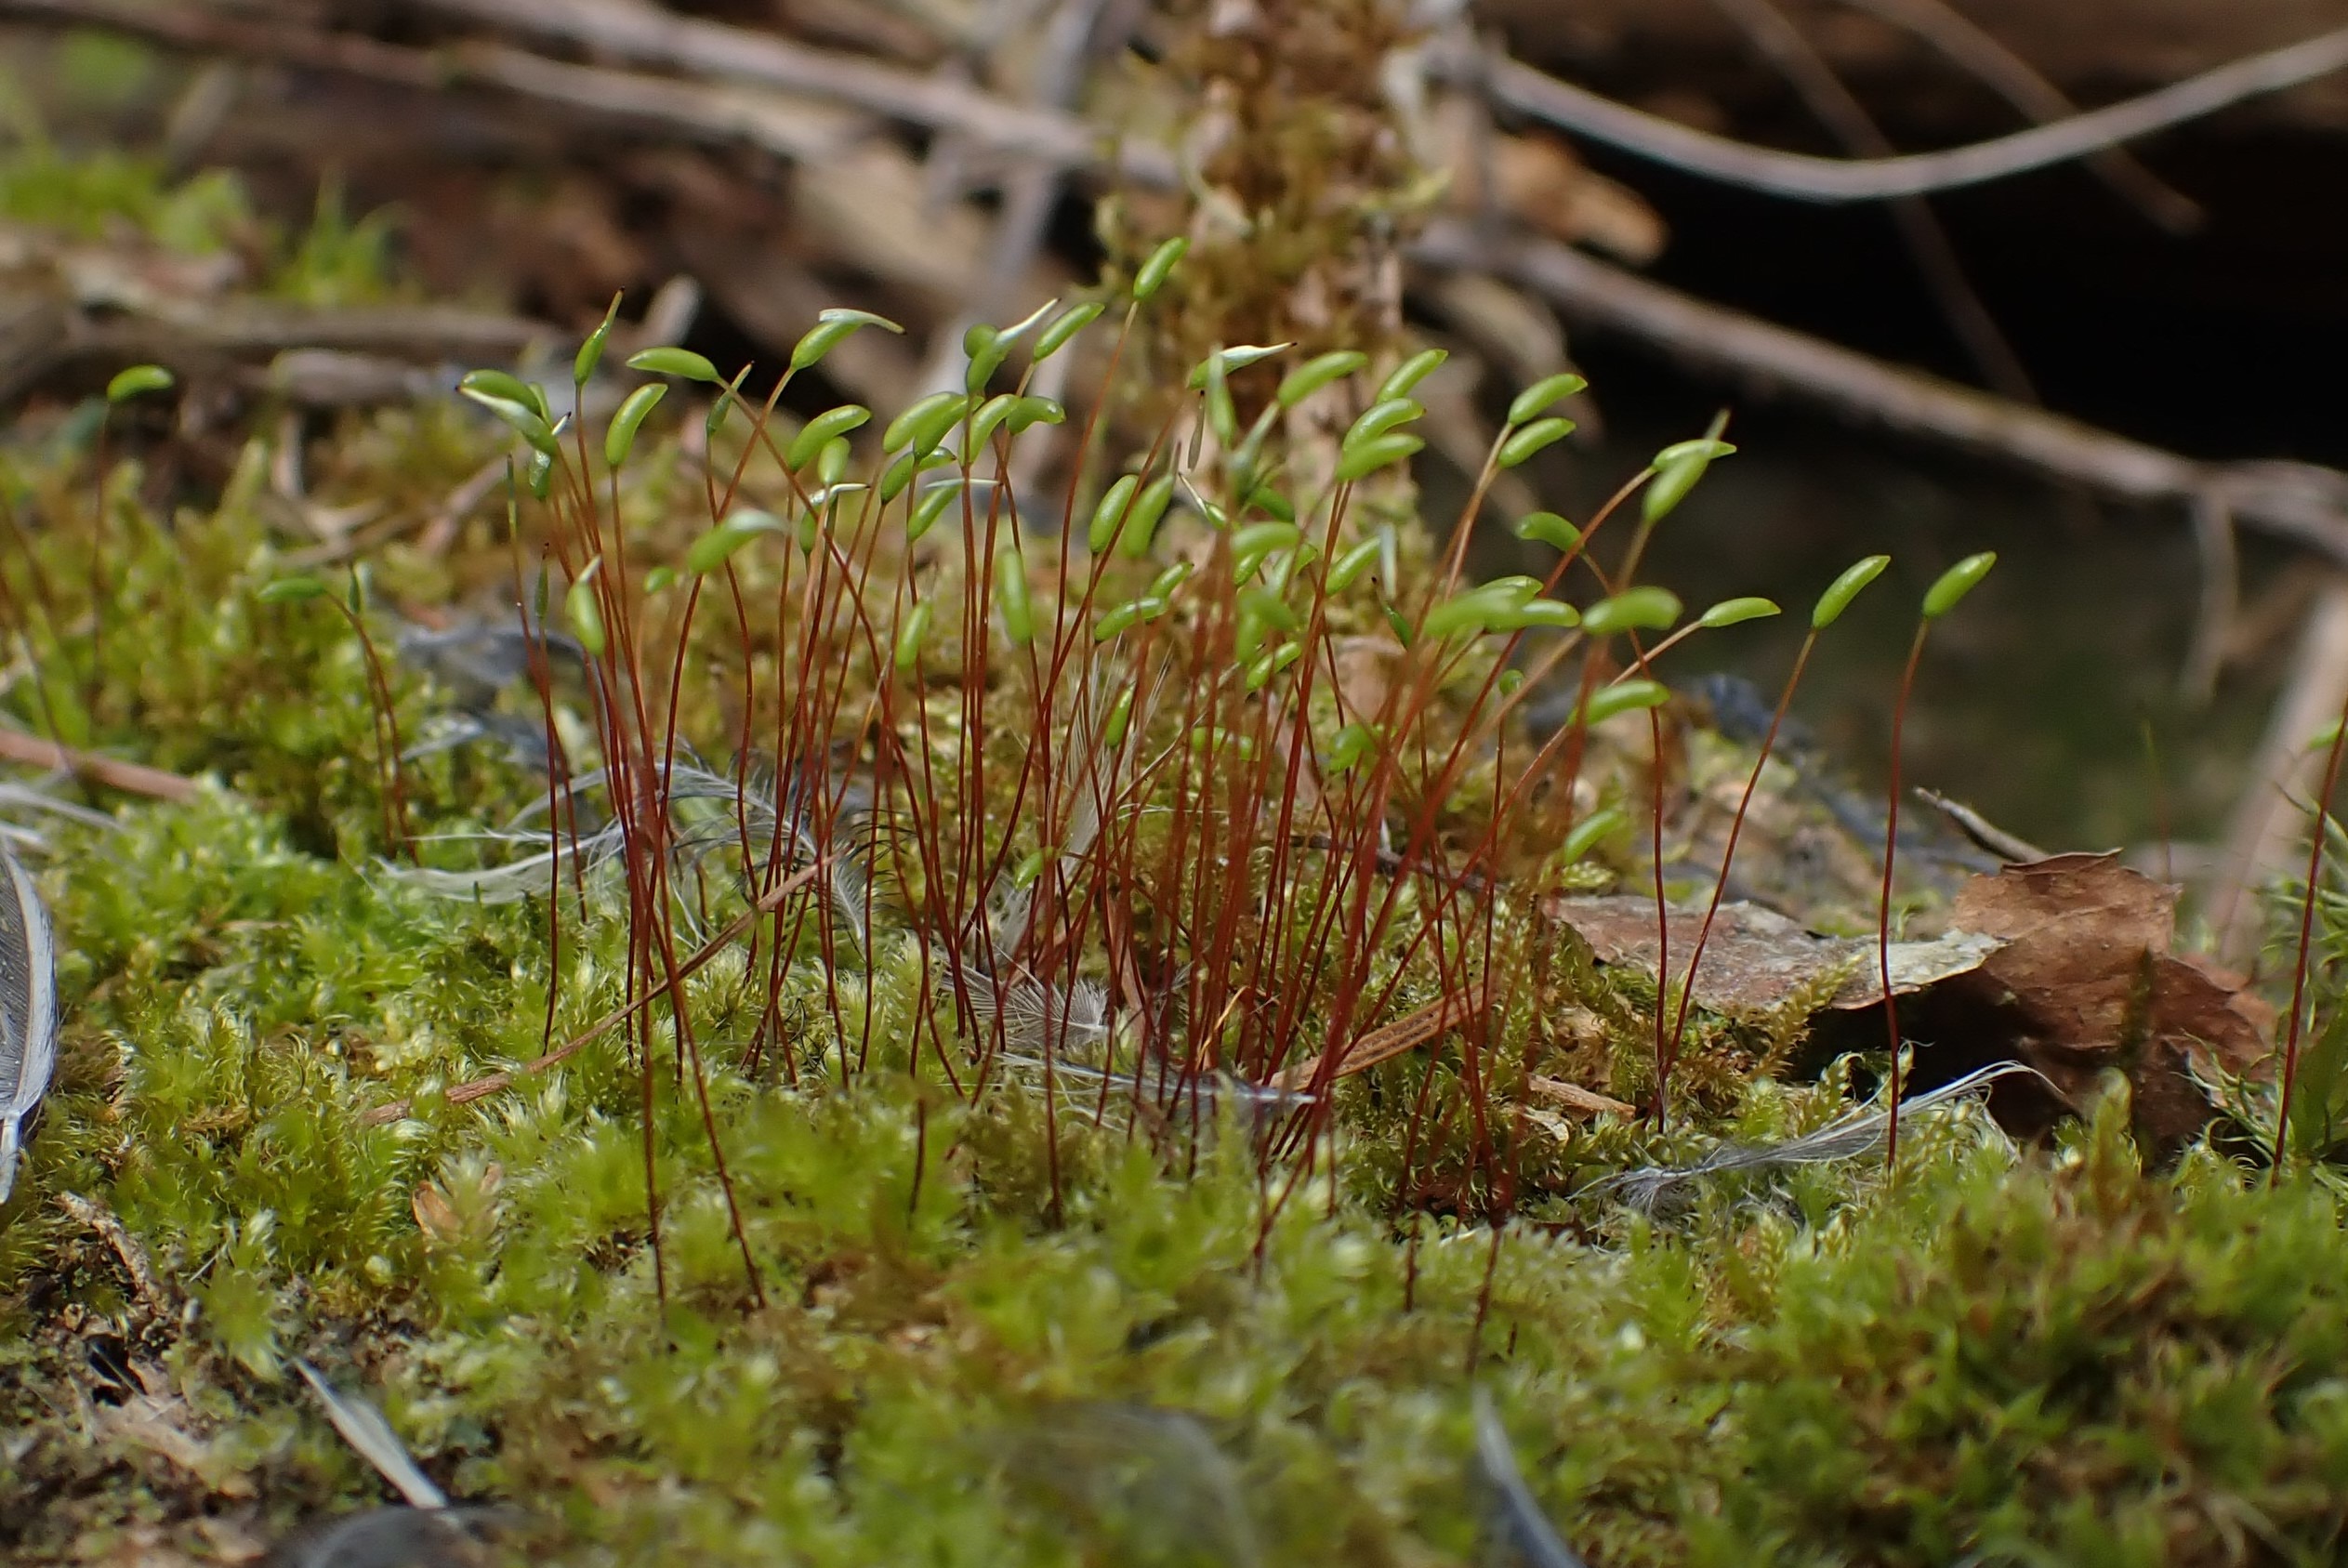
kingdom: Plantae
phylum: Bryophyta
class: Bryopsida
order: Hypnales
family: Plagiotheciaceae
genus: Herzogiella
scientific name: Herzogiella seligeri
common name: Stub-pølsekapsel
